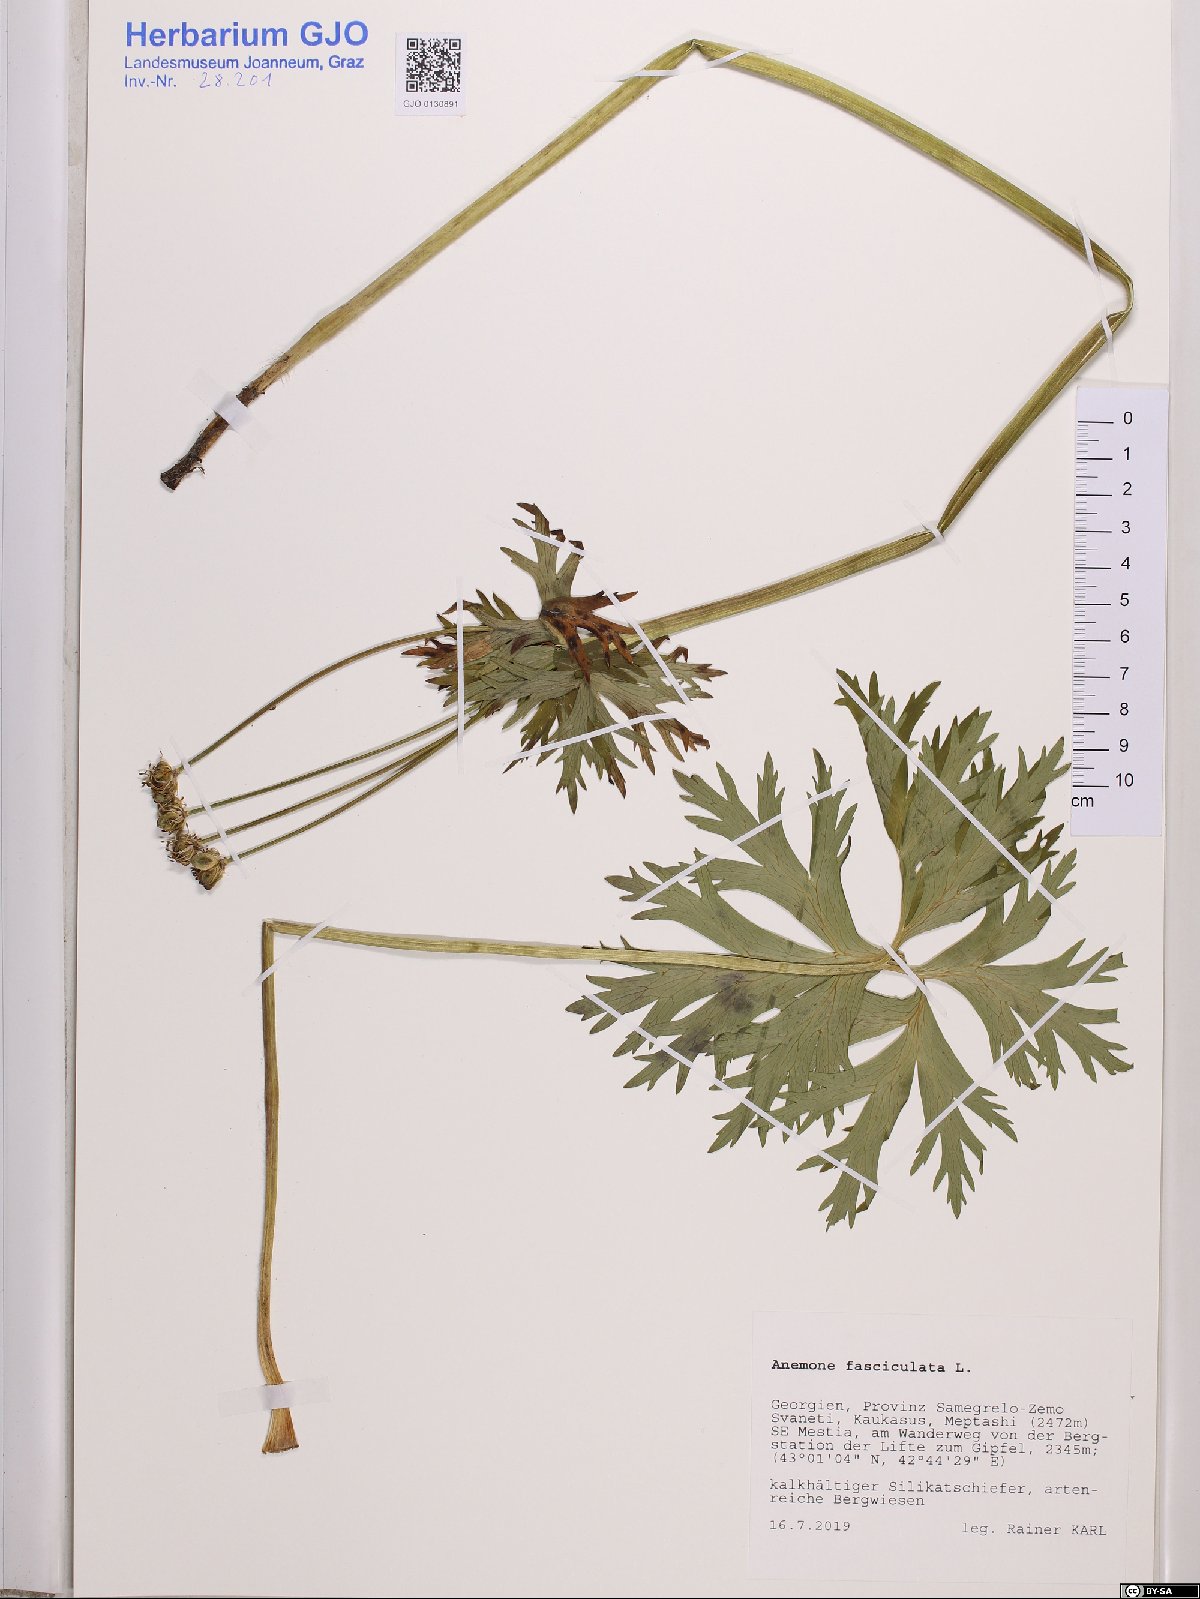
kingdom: Plantae
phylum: Tracheophyta
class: Magnoliopsida
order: Ranunculales
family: Ranunculaceae
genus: Anemonastrum
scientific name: Anemonastrum narcissiflorum
